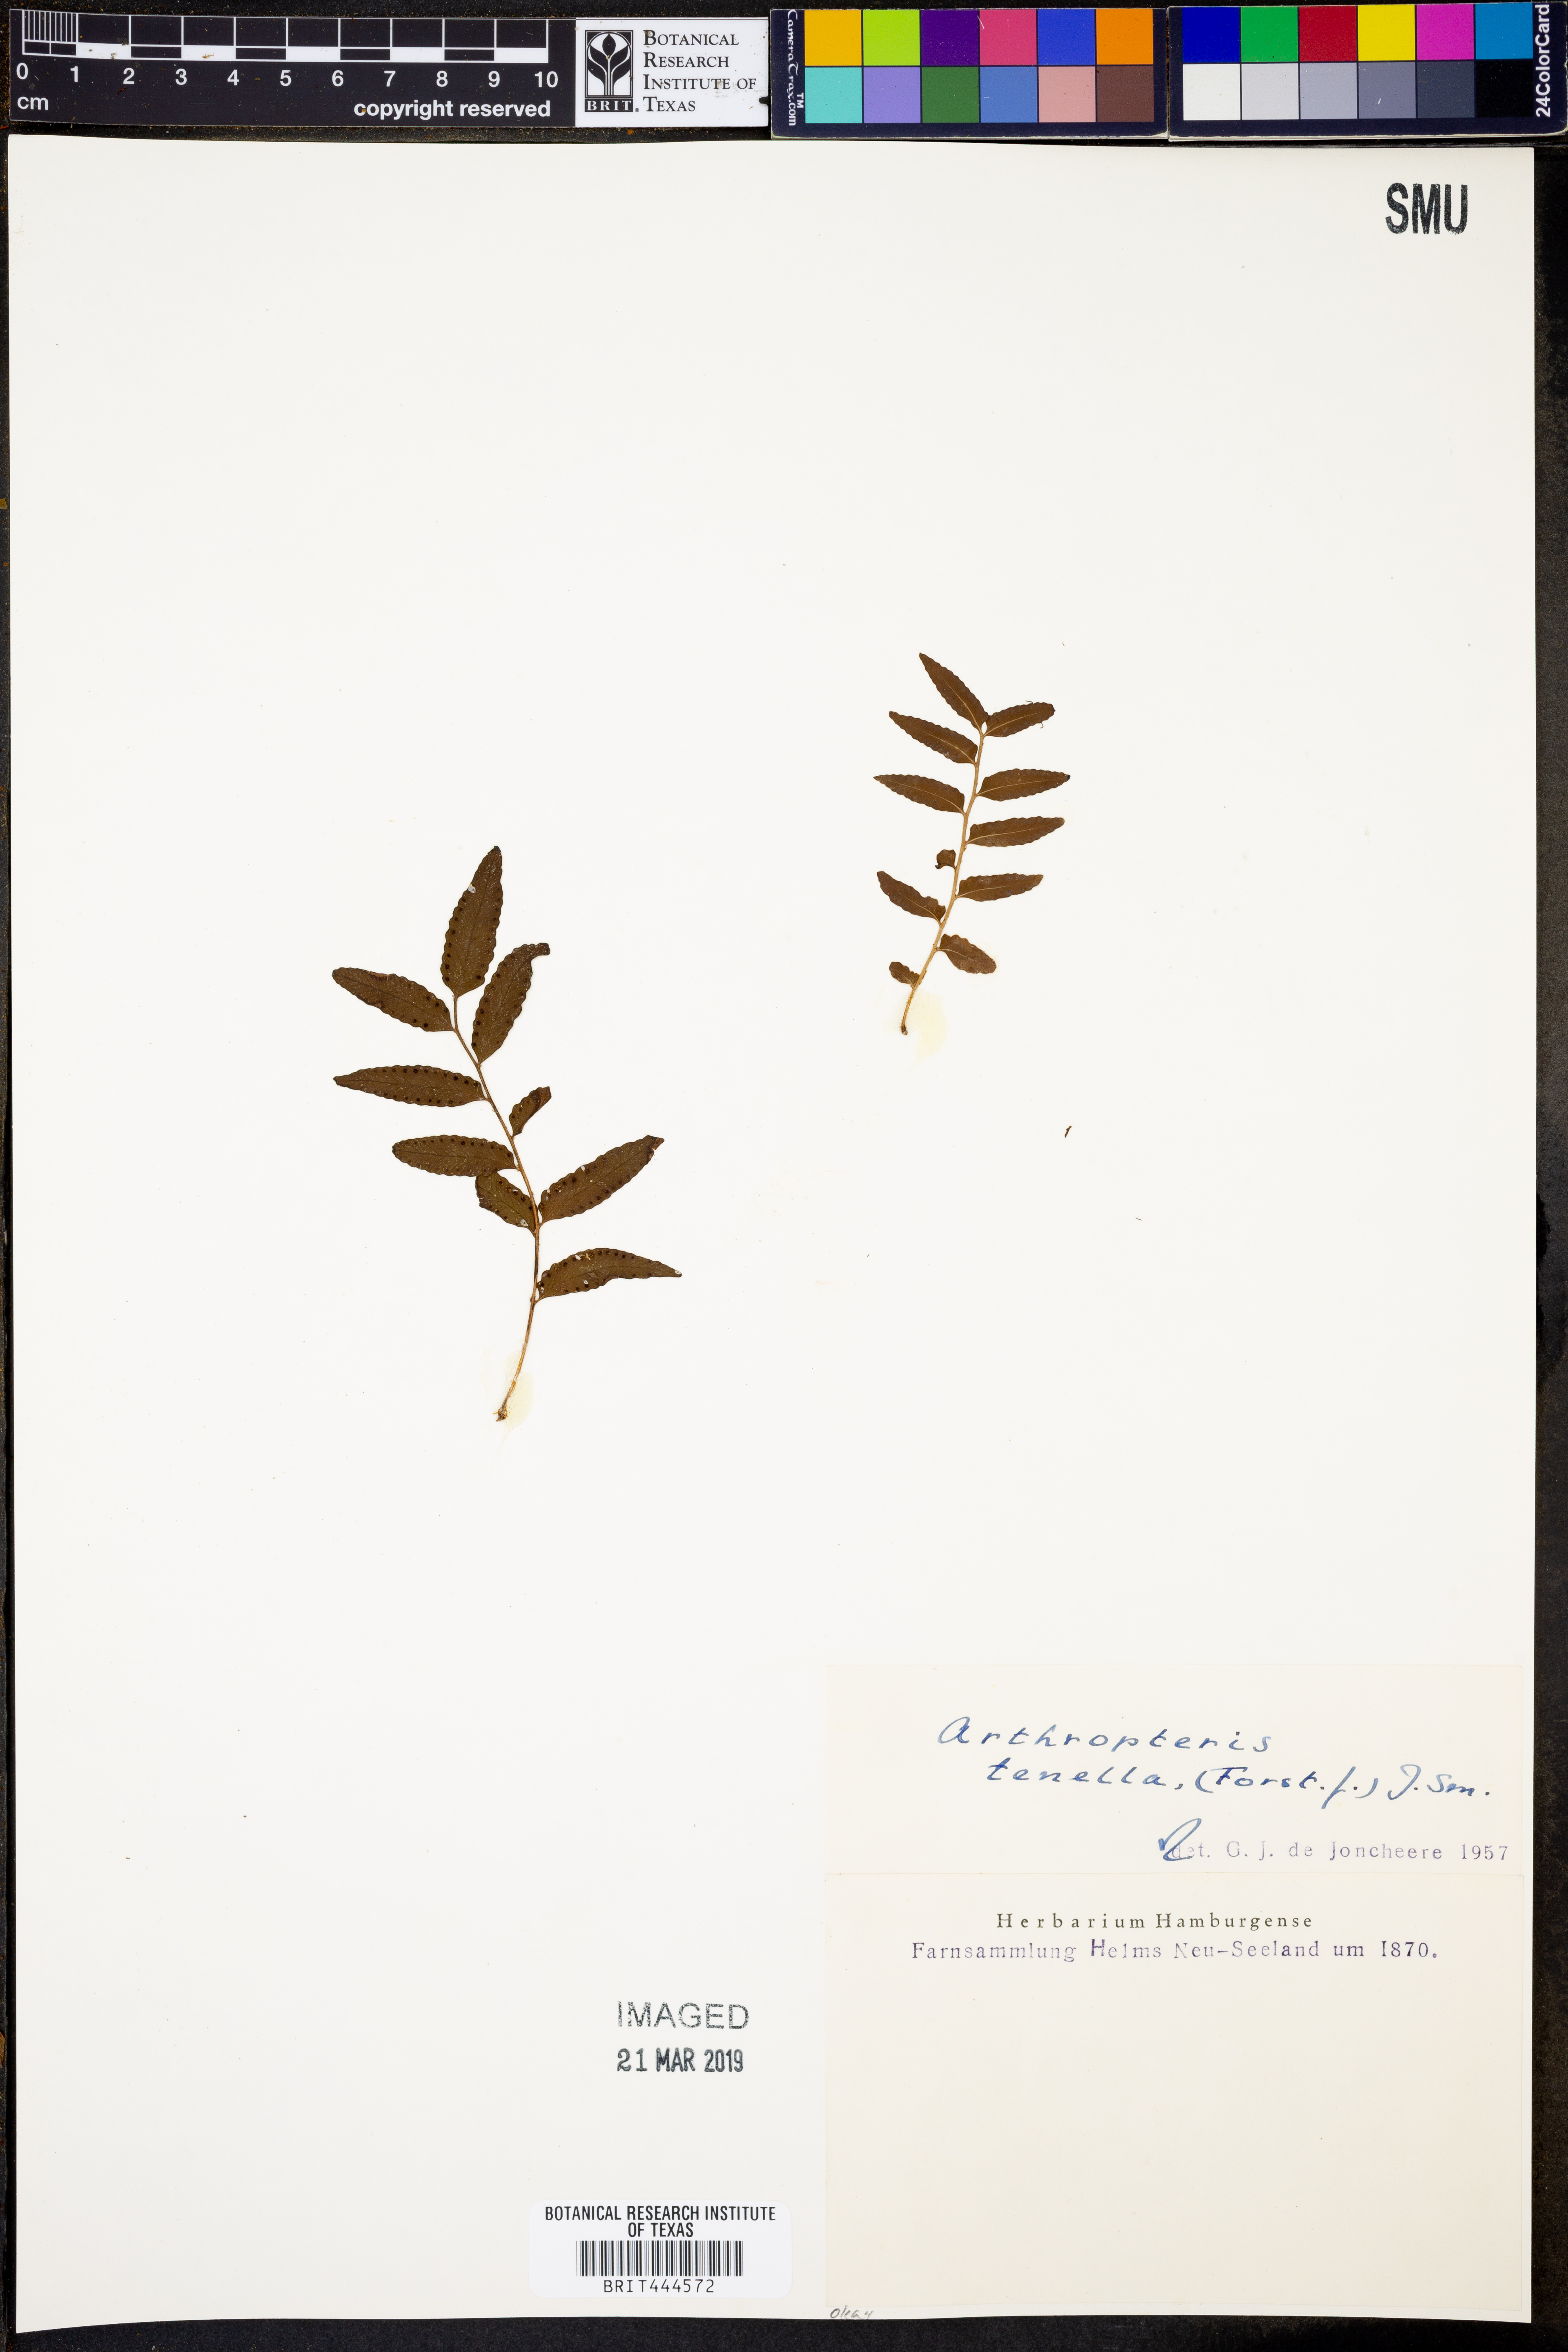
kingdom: Plantae
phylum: Tracheophyta
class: Polypodiopsida
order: Polypodiales
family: Tectariaceae
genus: Arthropteris
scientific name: Arthropteris tenella
